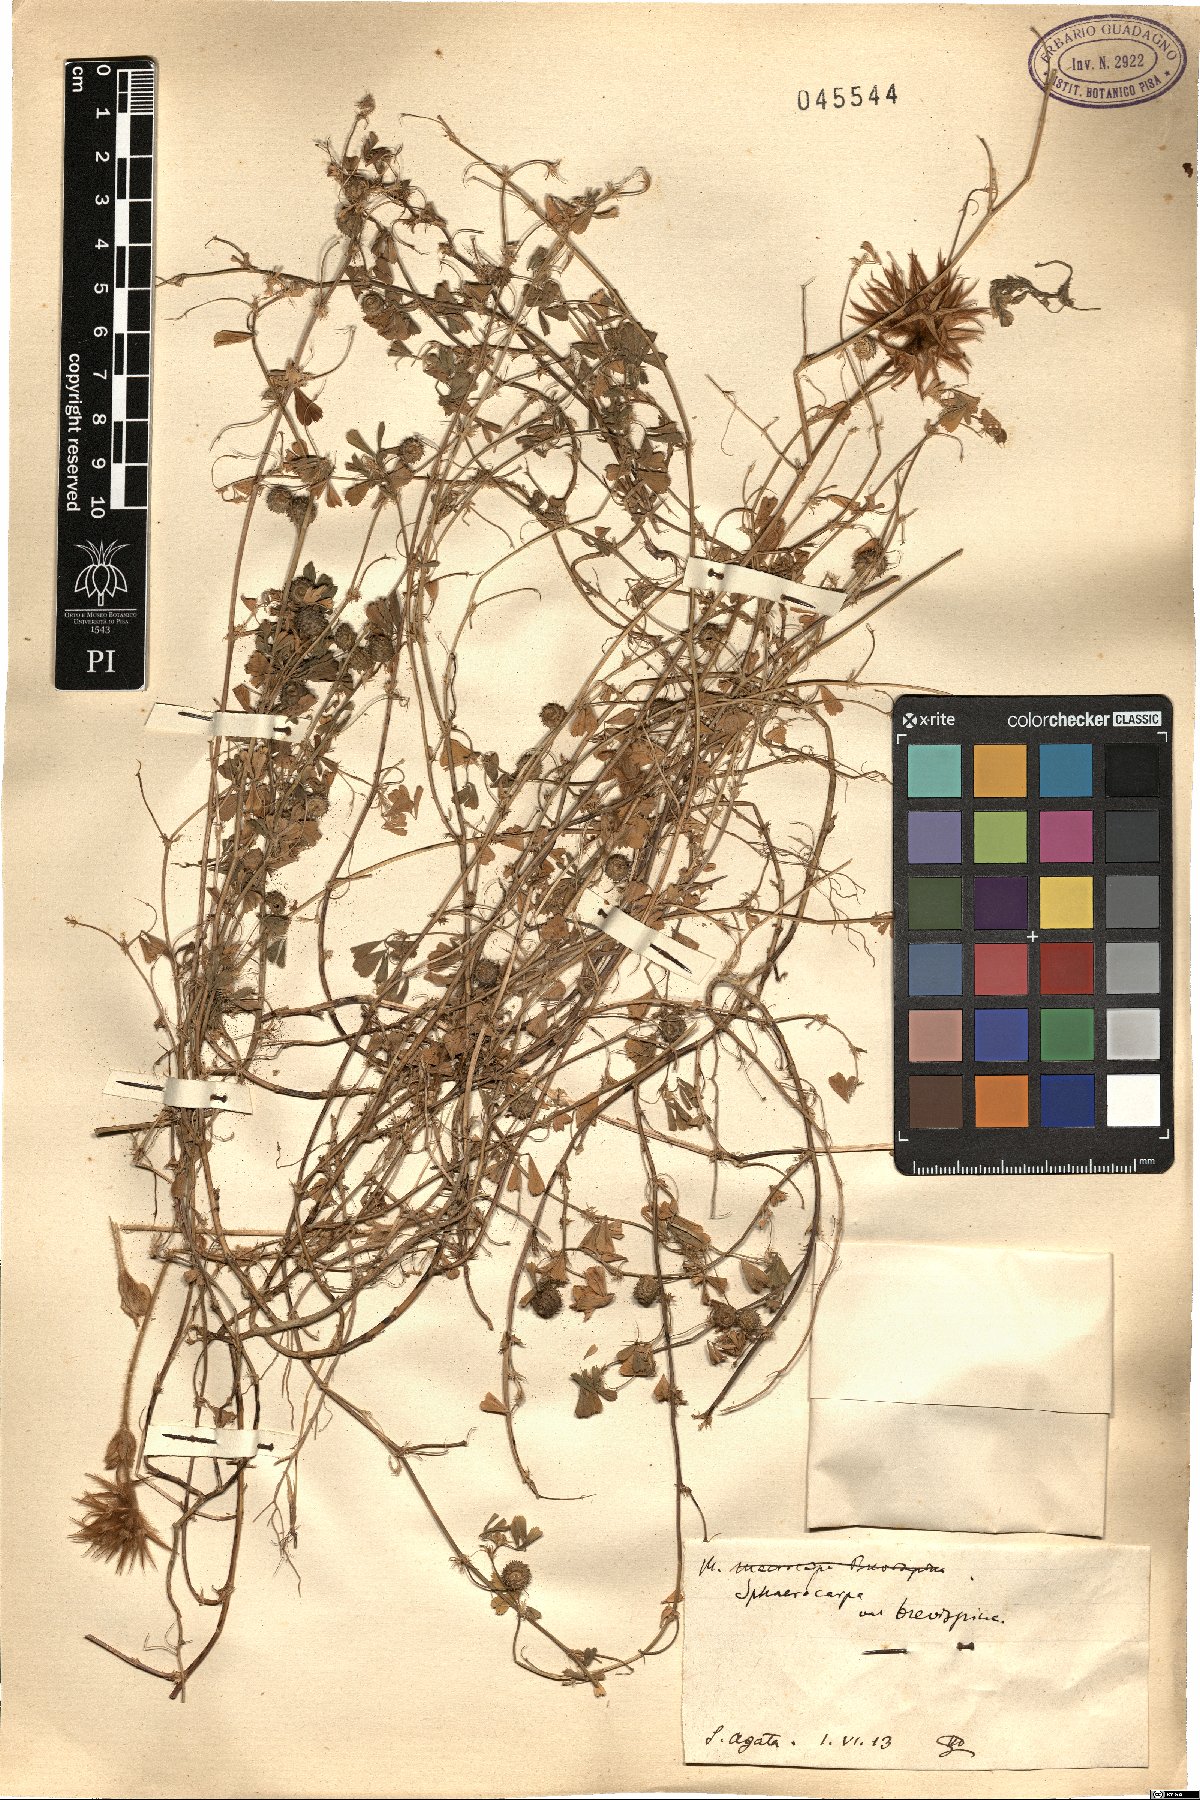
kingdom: Plantae
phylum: Tracheophyta
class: Magnoliopsida
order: Fabales
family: Fabaceae
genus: Medicago
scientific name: Medicago sphaerocarpos
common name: Sphere medic
